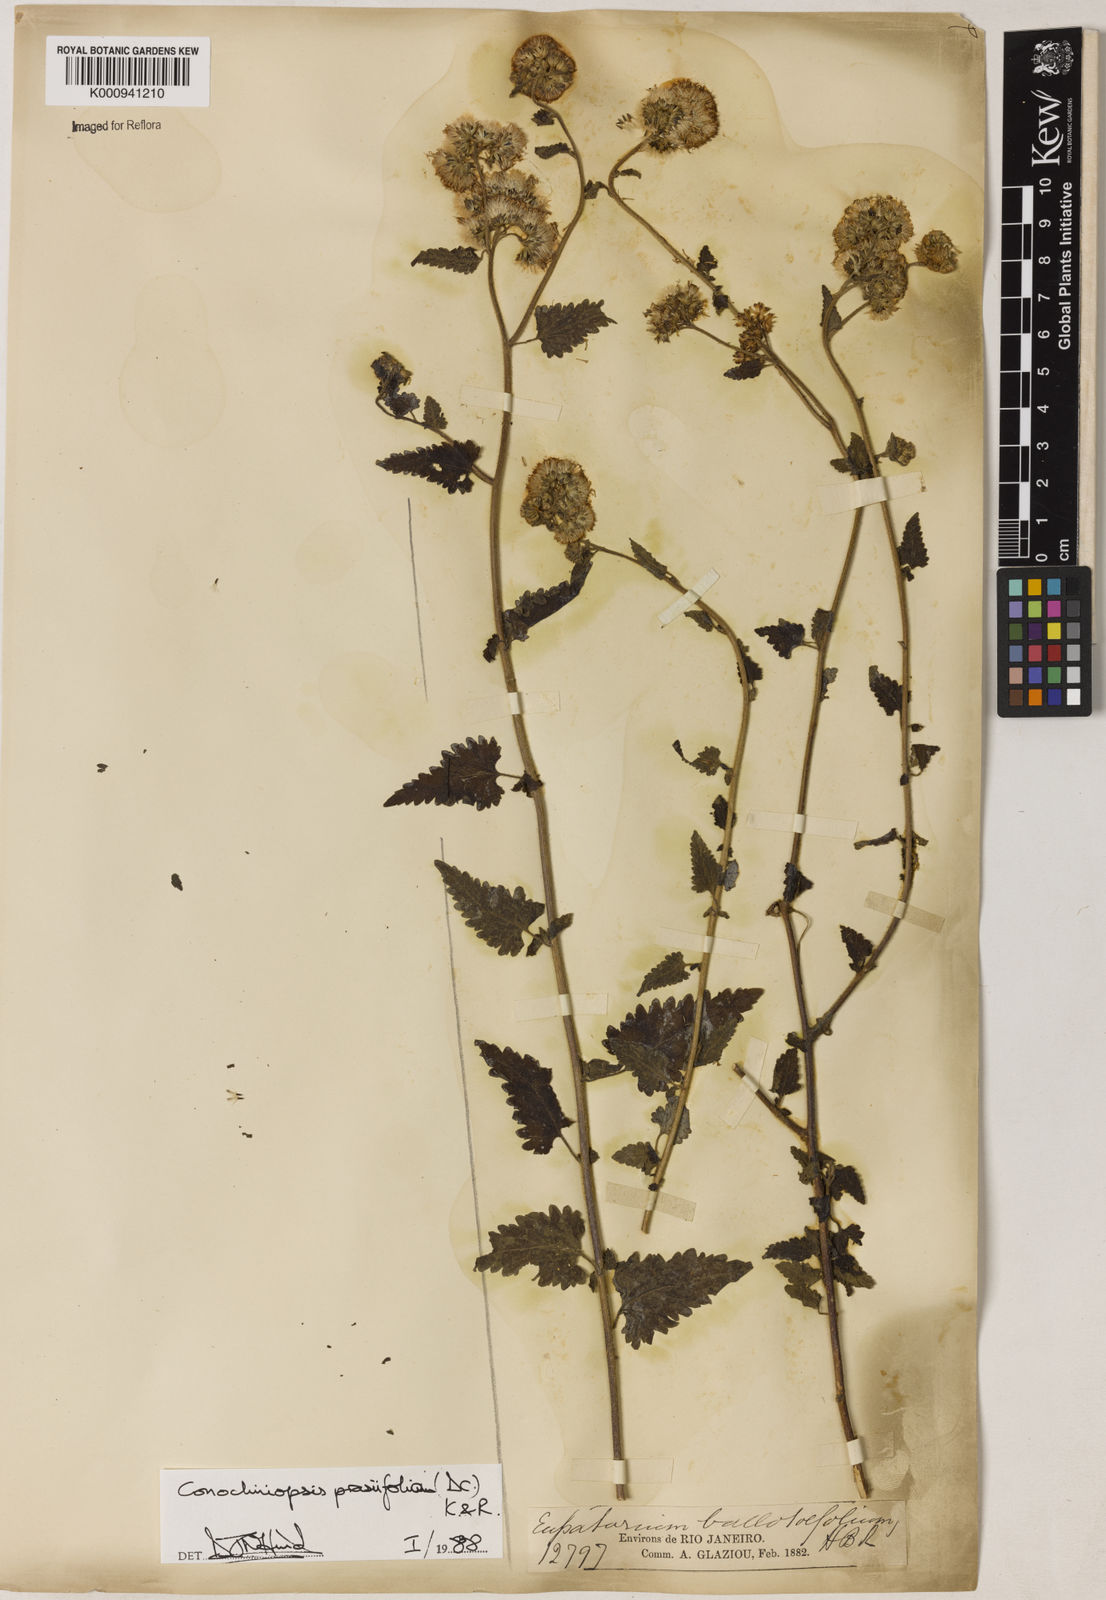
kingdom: Plantae
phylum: Tracheophyta
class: Magnoliopsida
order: Asterales
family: Asteraceae
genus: Conocliniopsis
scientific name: Conocliniopsis grossedentata
